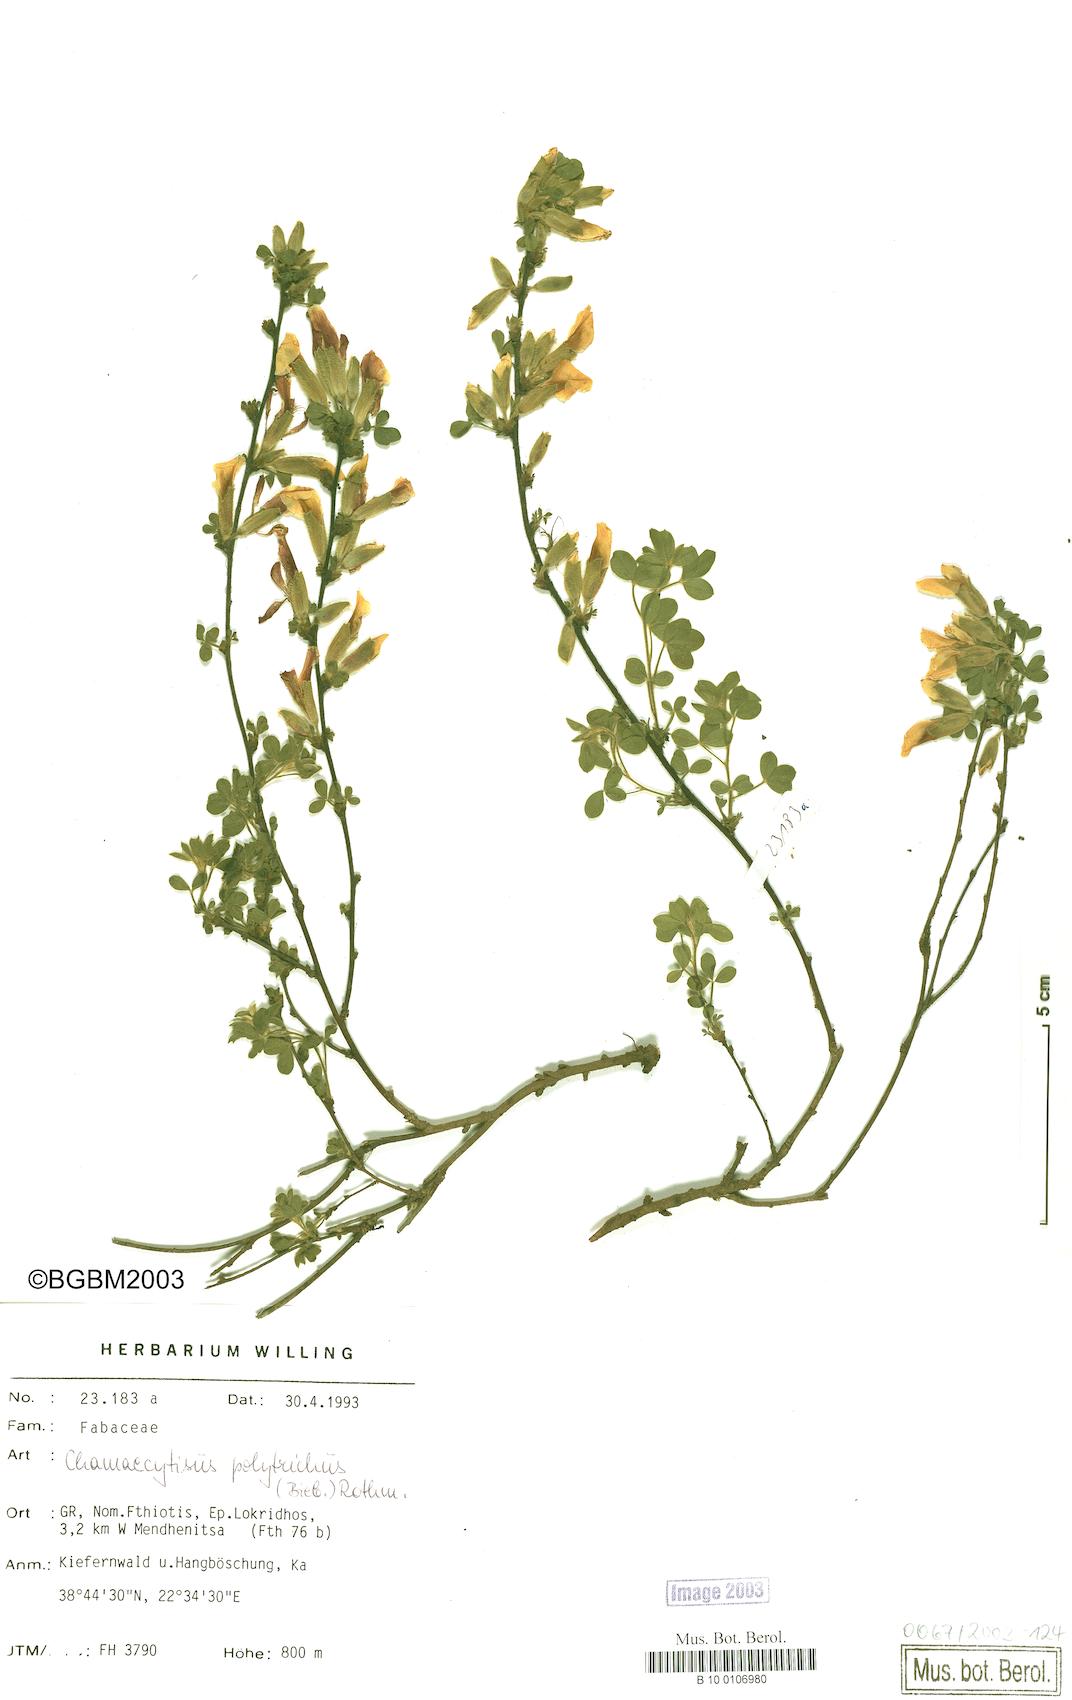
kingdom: Plantae
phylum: Tracheophyta
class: Magnoliopsida
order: Fabales
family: Fabaceae
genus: Chamaecytisus
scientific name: Chamaecytisus hirsutus
